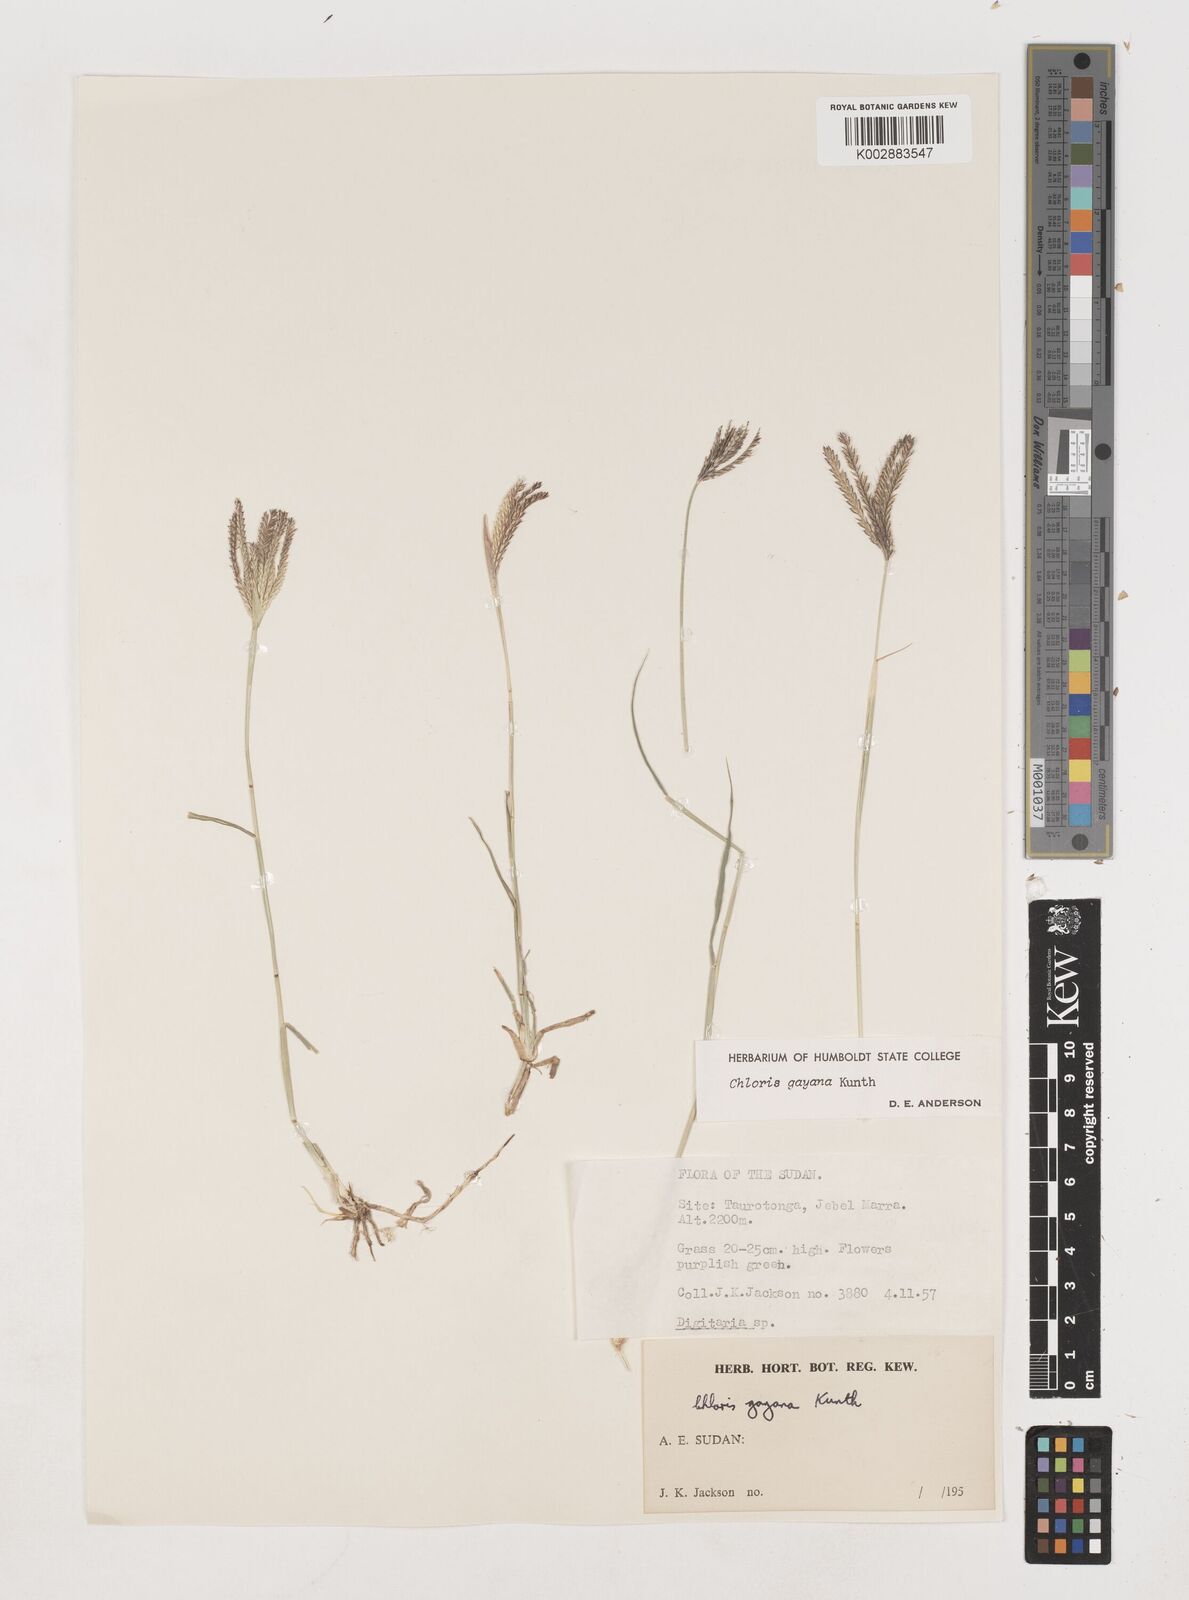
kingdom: Plantae
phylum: Tracheophyta
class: Liliopsida
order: Poales
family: Poaceae
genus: Chloris
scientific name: Chloris gayana
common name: Rhodes grass
